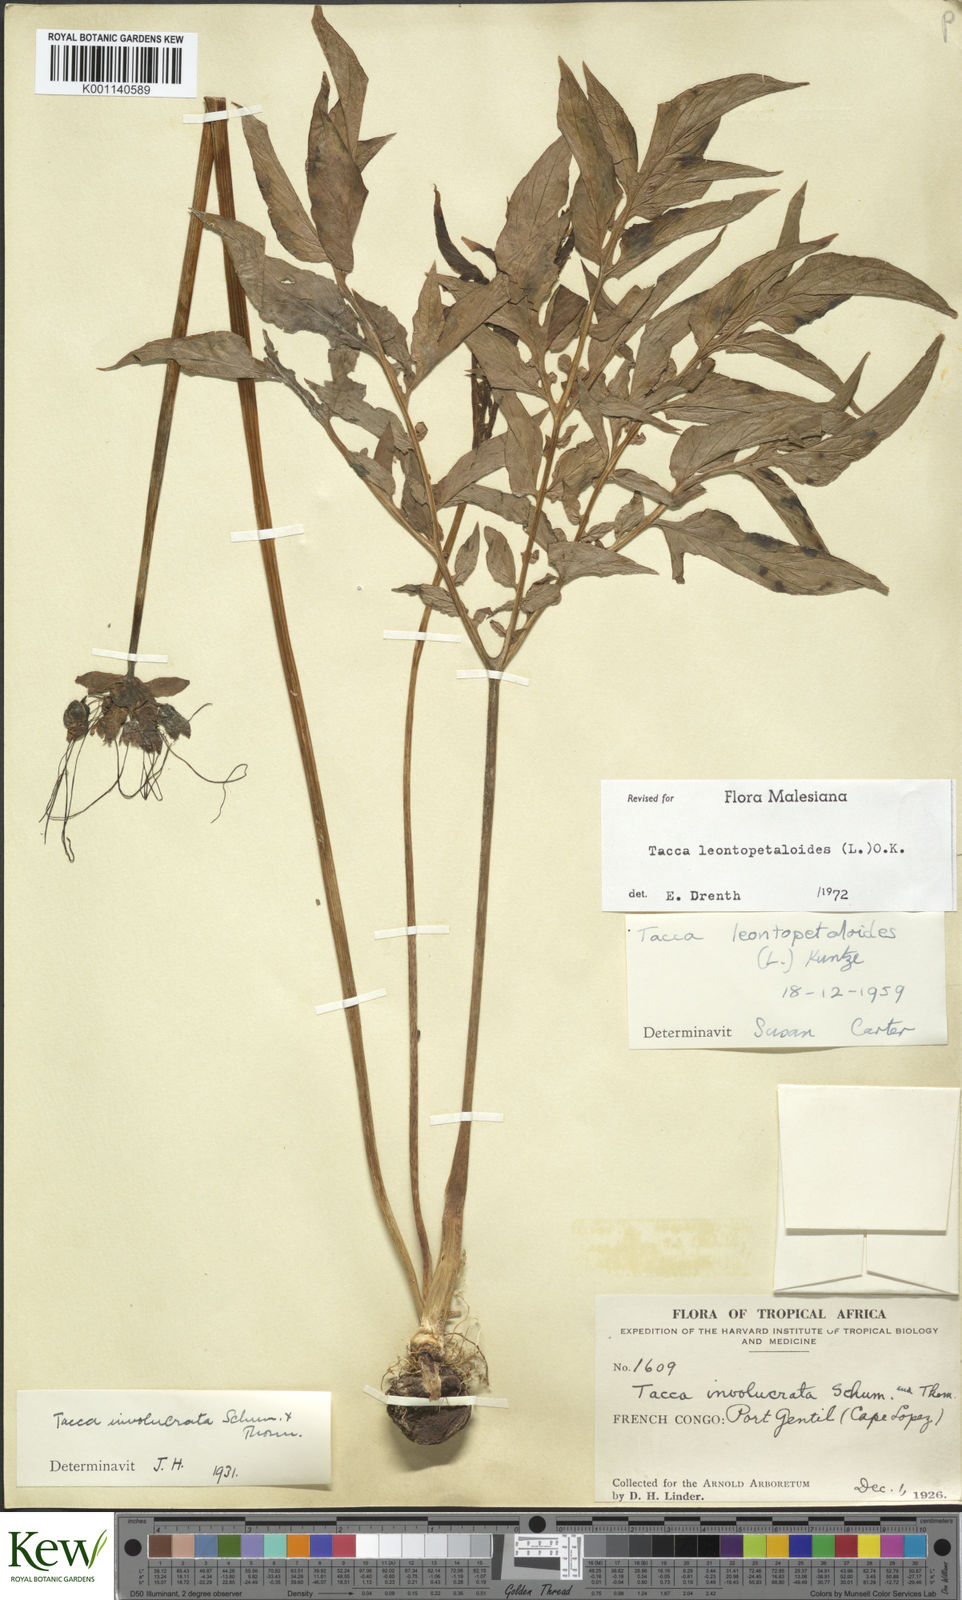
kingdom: Plantae
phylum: Tracheophyta
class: Liliopsida
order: Dioscoreales
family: Dioscoreaceae
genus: Tacca
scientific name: Tacca leontopetaloides
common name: Arrowroot
